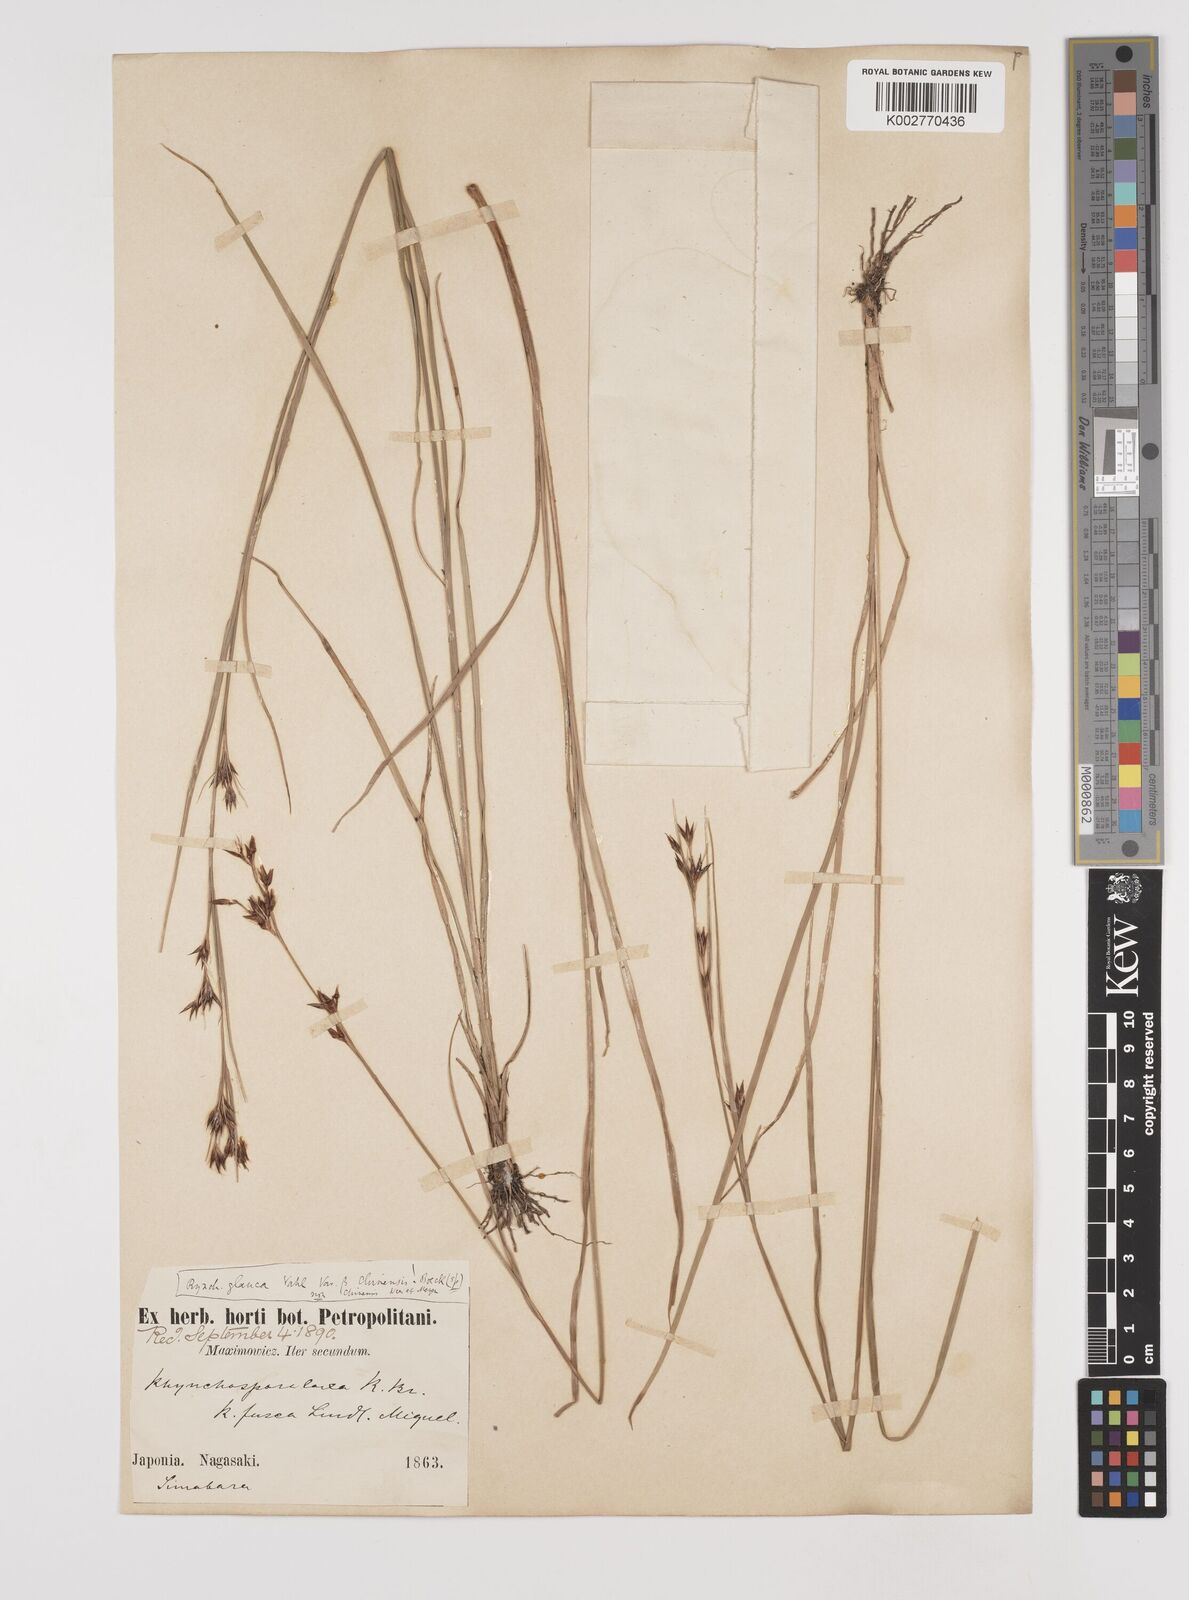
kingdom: Plantae
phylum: Tracheophyta
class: Liliopsida
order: Poales
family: Cyperaceae
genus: Rhynchospora
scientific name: Rhynchospora
